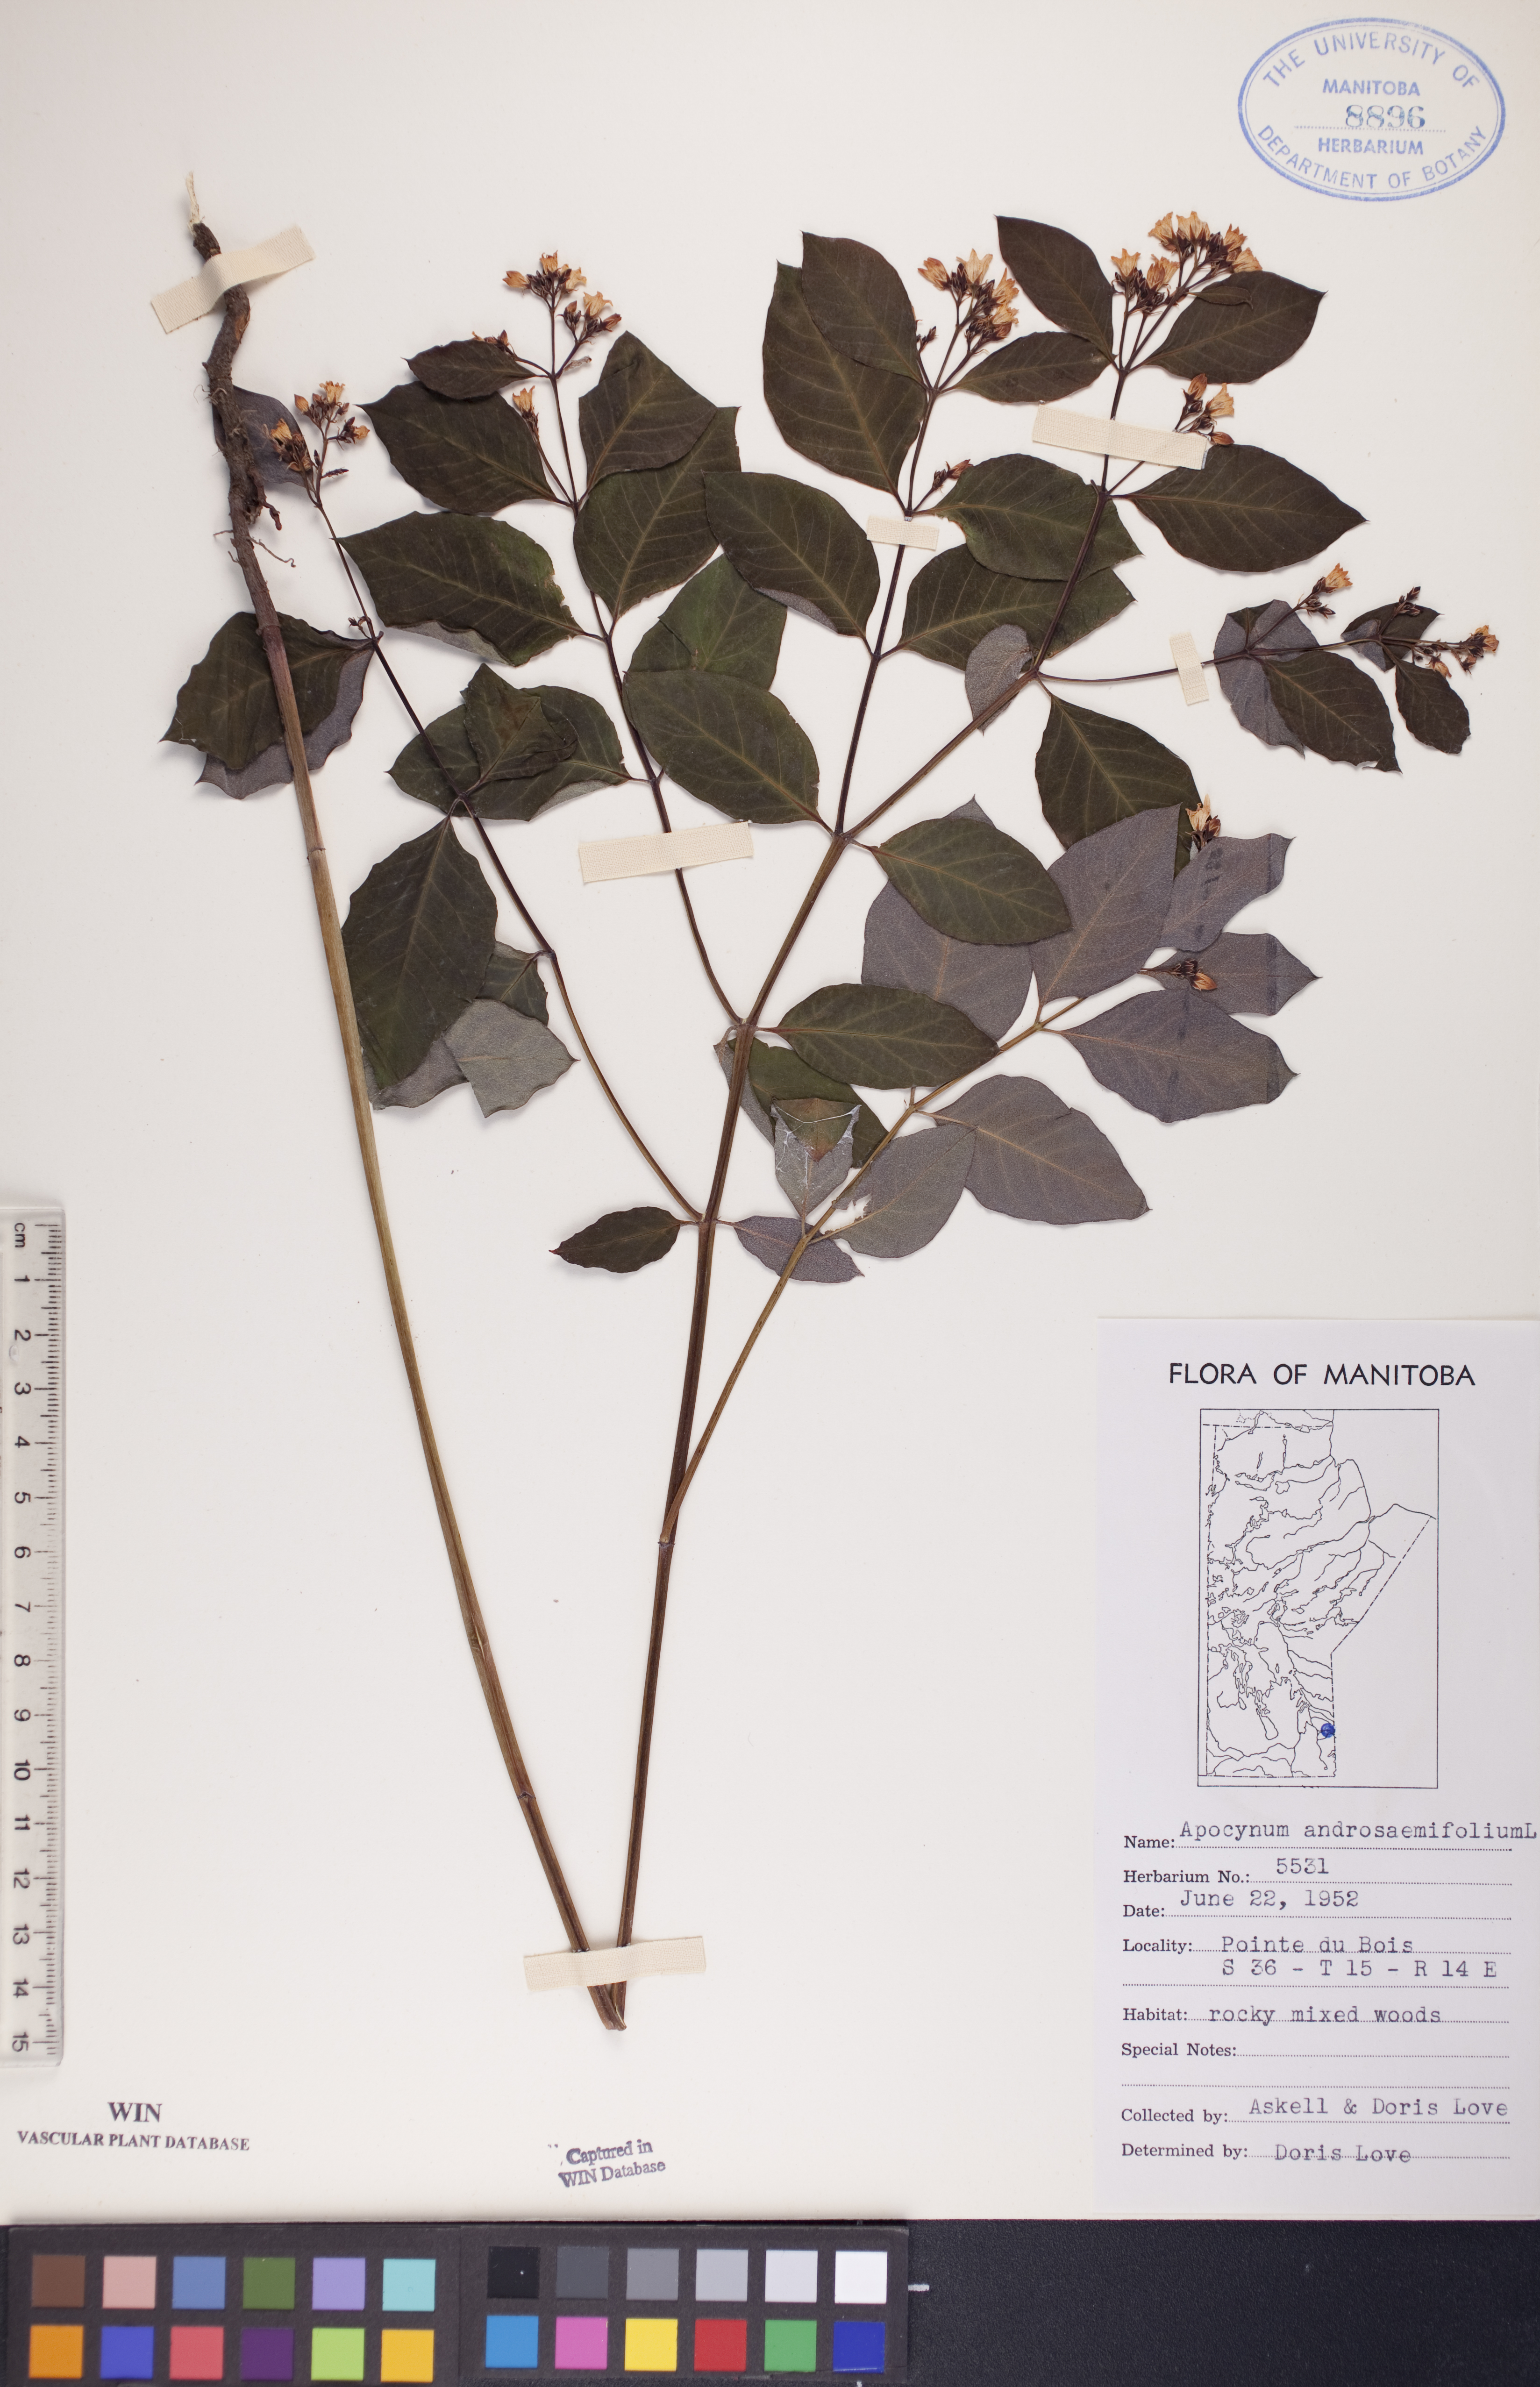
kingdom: Plantae
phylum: Tracheophyta
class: Magnoliopsida
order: Gentianales
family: Apocynaceae
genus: Apocynum
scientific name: Apocynum androsaemifolium
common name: Spreading dogbane
